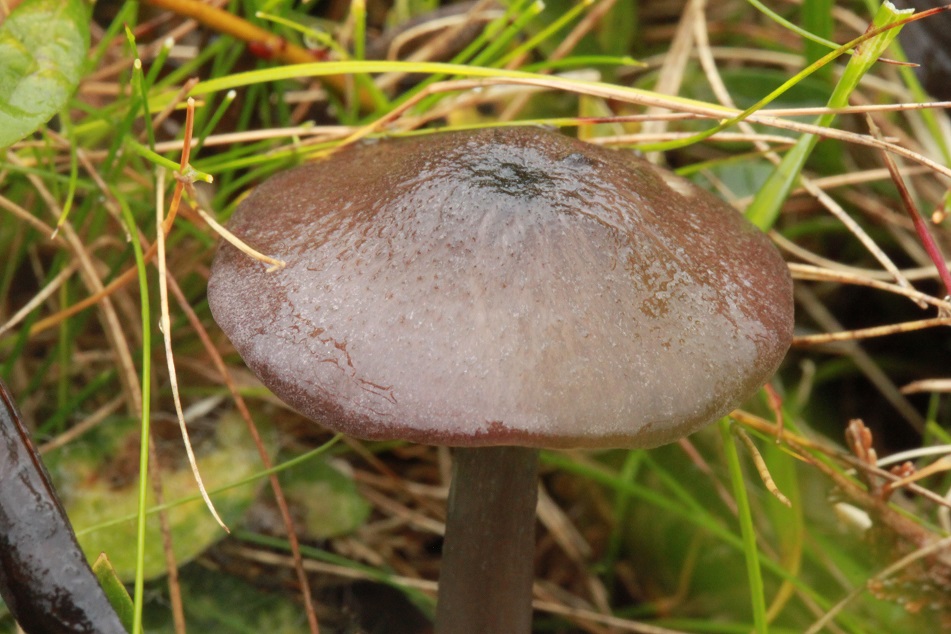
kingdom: Fungi
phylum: Basidiomycota
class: Agaricomycetes
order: Agaricales
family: Entolomataceae
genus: Entoloma
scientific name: Entoloma viiduense
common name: purpurbrun rødblad
